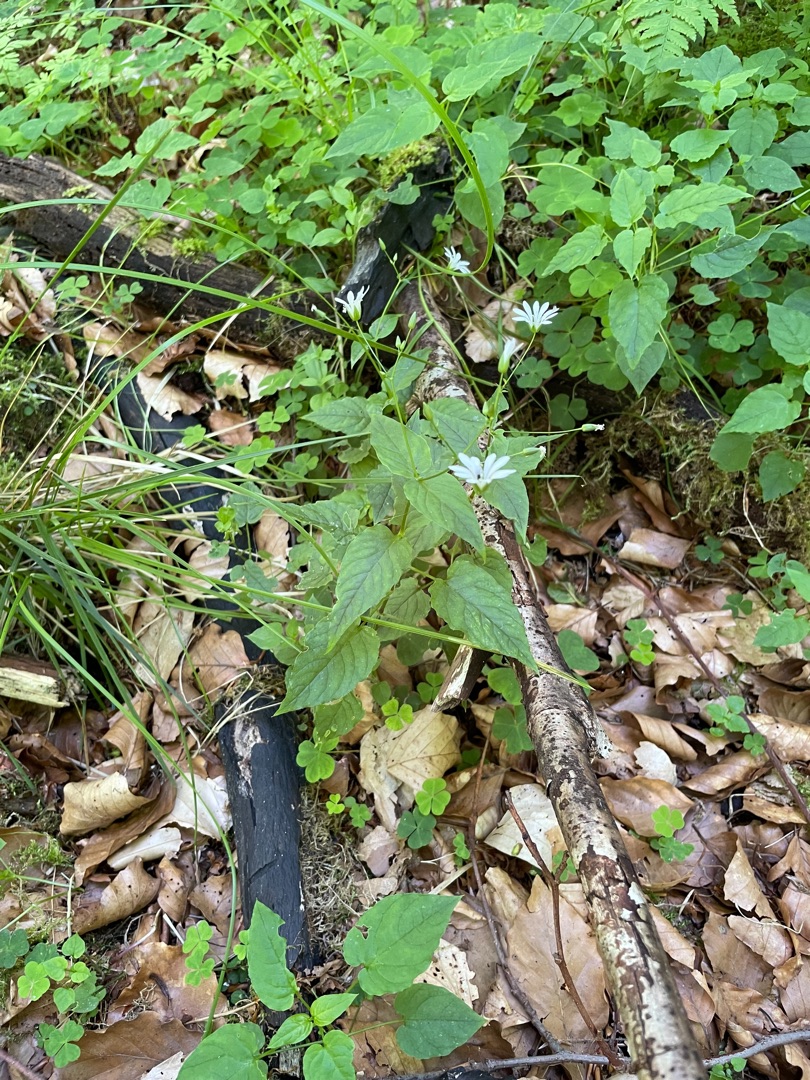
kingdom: Plantae
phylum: Tracheophyta
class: Magnoliopsida
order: Caryophyllales
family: Caryophyllaceae
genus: Stellaria
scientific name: Stellaria nemorum
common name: Lund-fladstjerne
